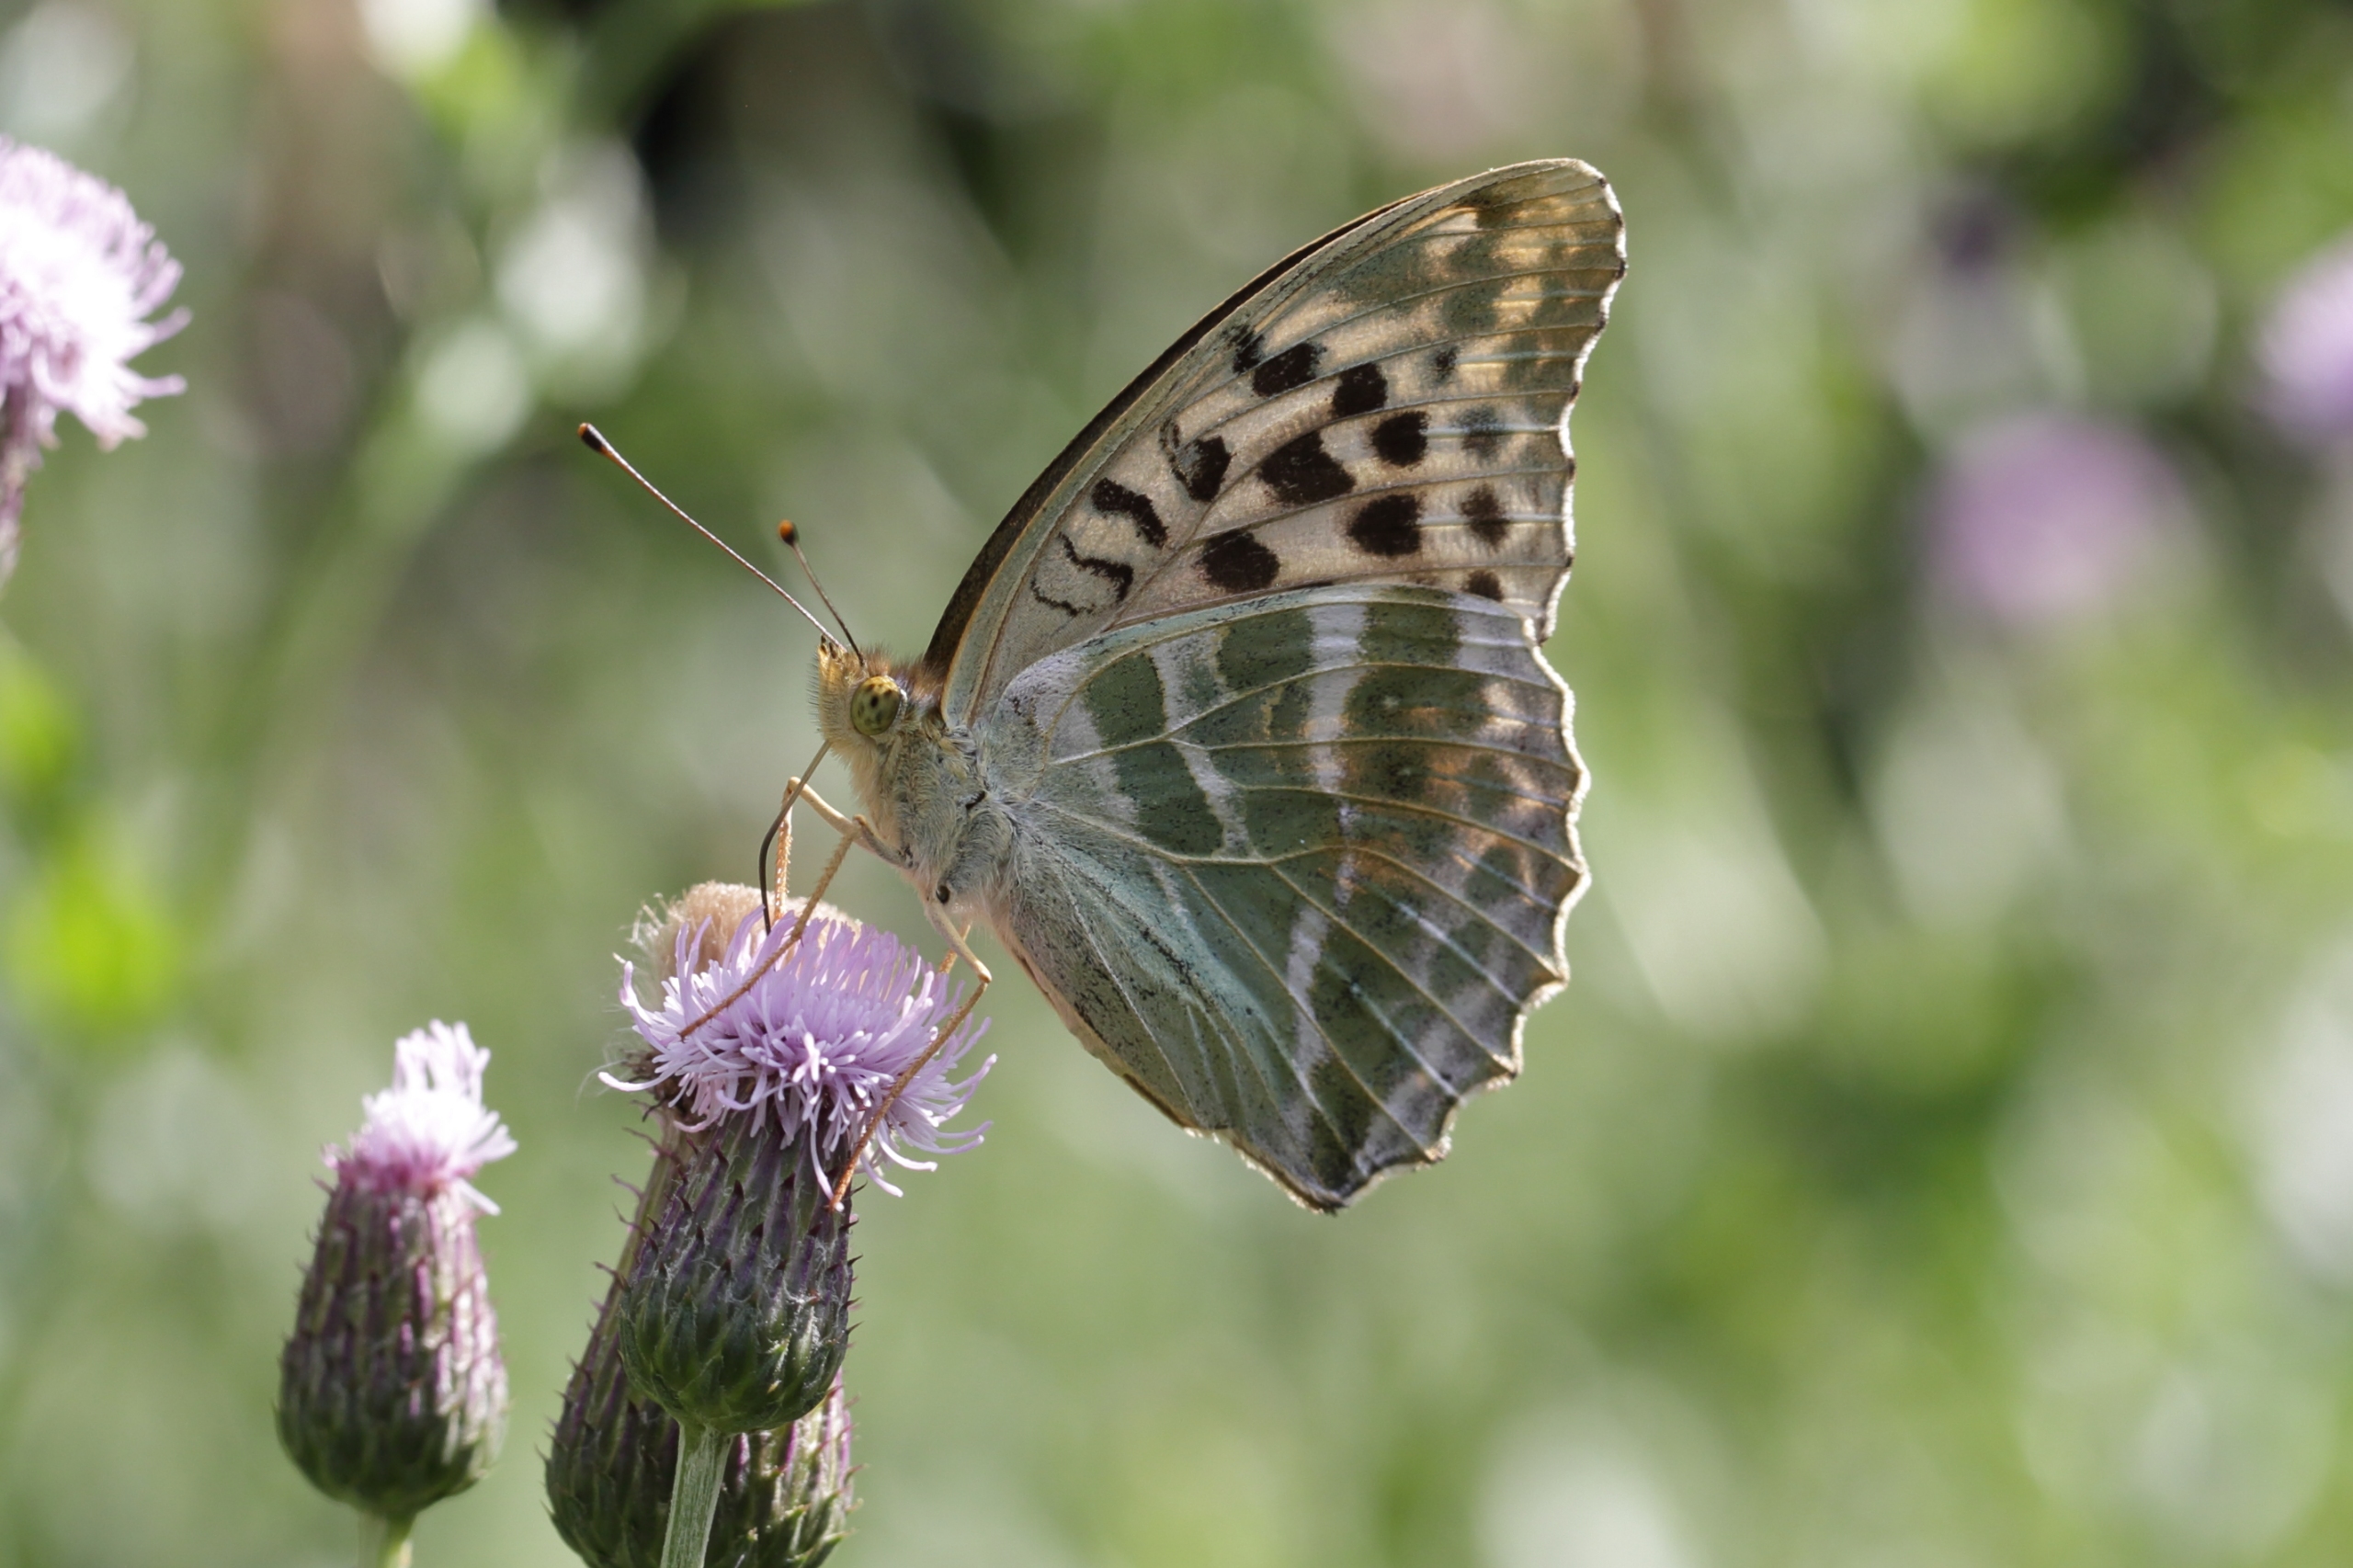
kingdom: Animalia
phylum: Arthropoda
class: Insecta
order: Lepidoptera
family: Nymphalidae
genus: Argynnis
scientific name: Argynnis paphia
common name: Kejserkåbe
